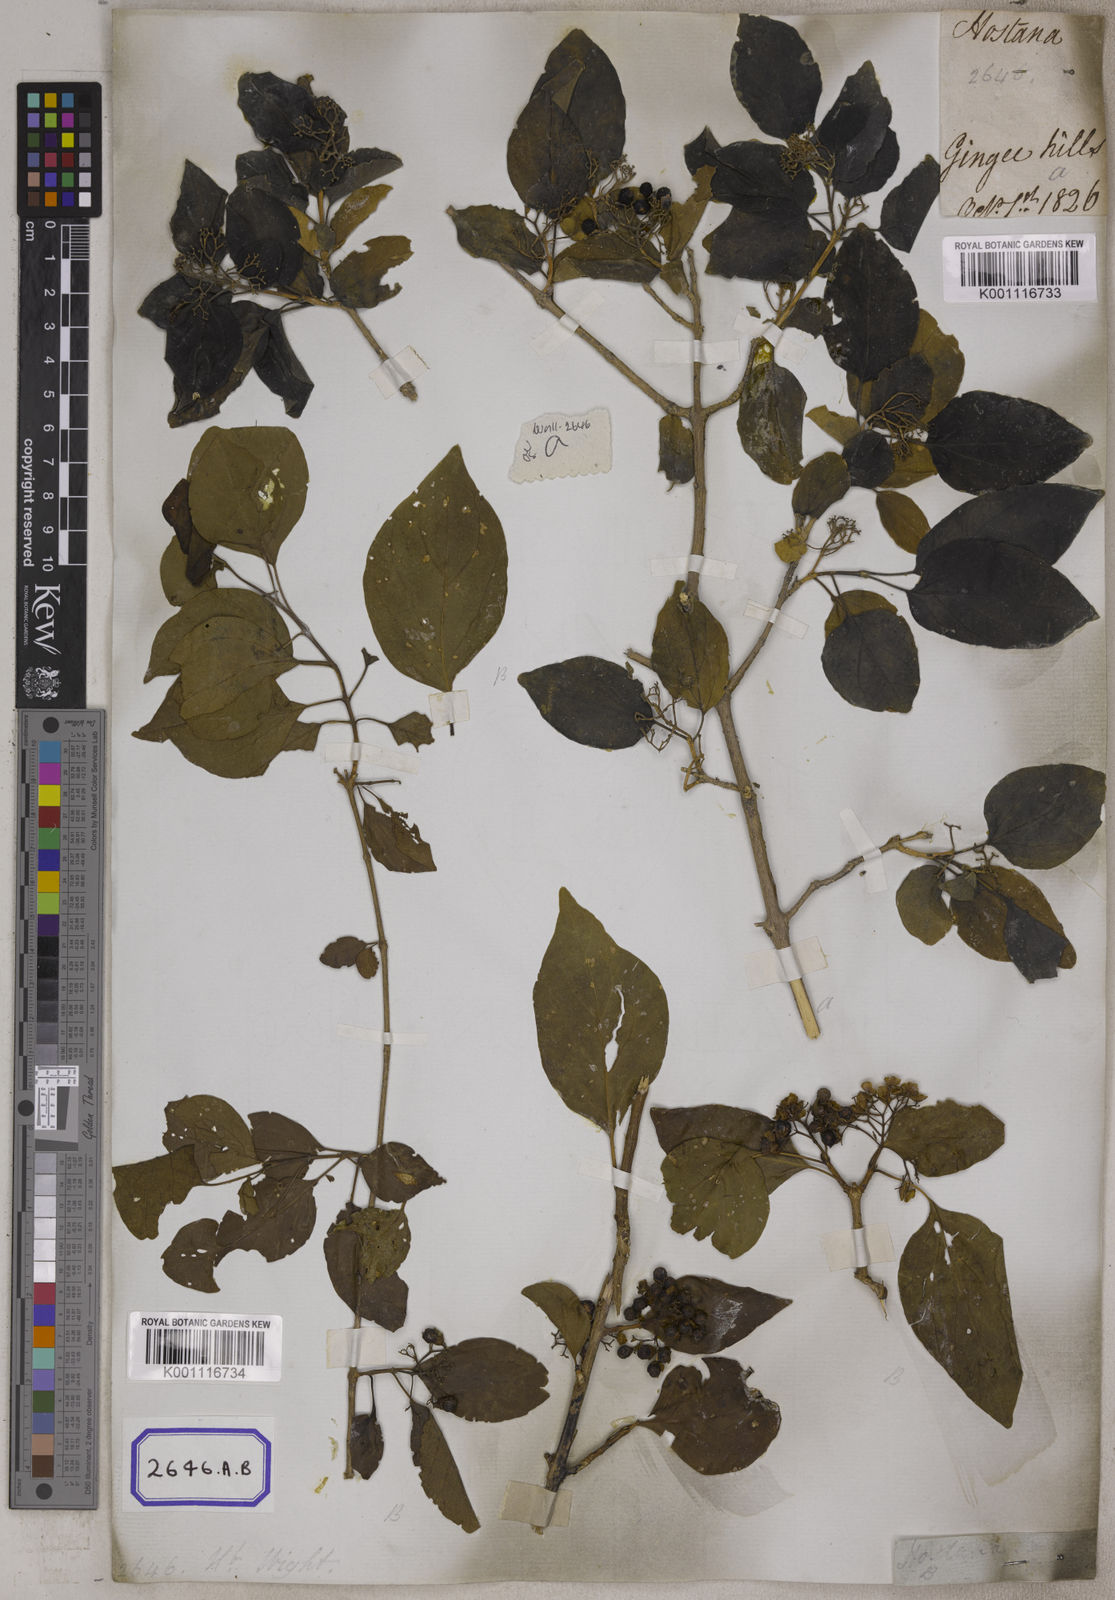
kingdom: Plantae
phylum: Tracheophyta
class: Magnoliopsida
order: Lamiales
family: Lamiaceae
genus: Premna
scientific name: Premna
